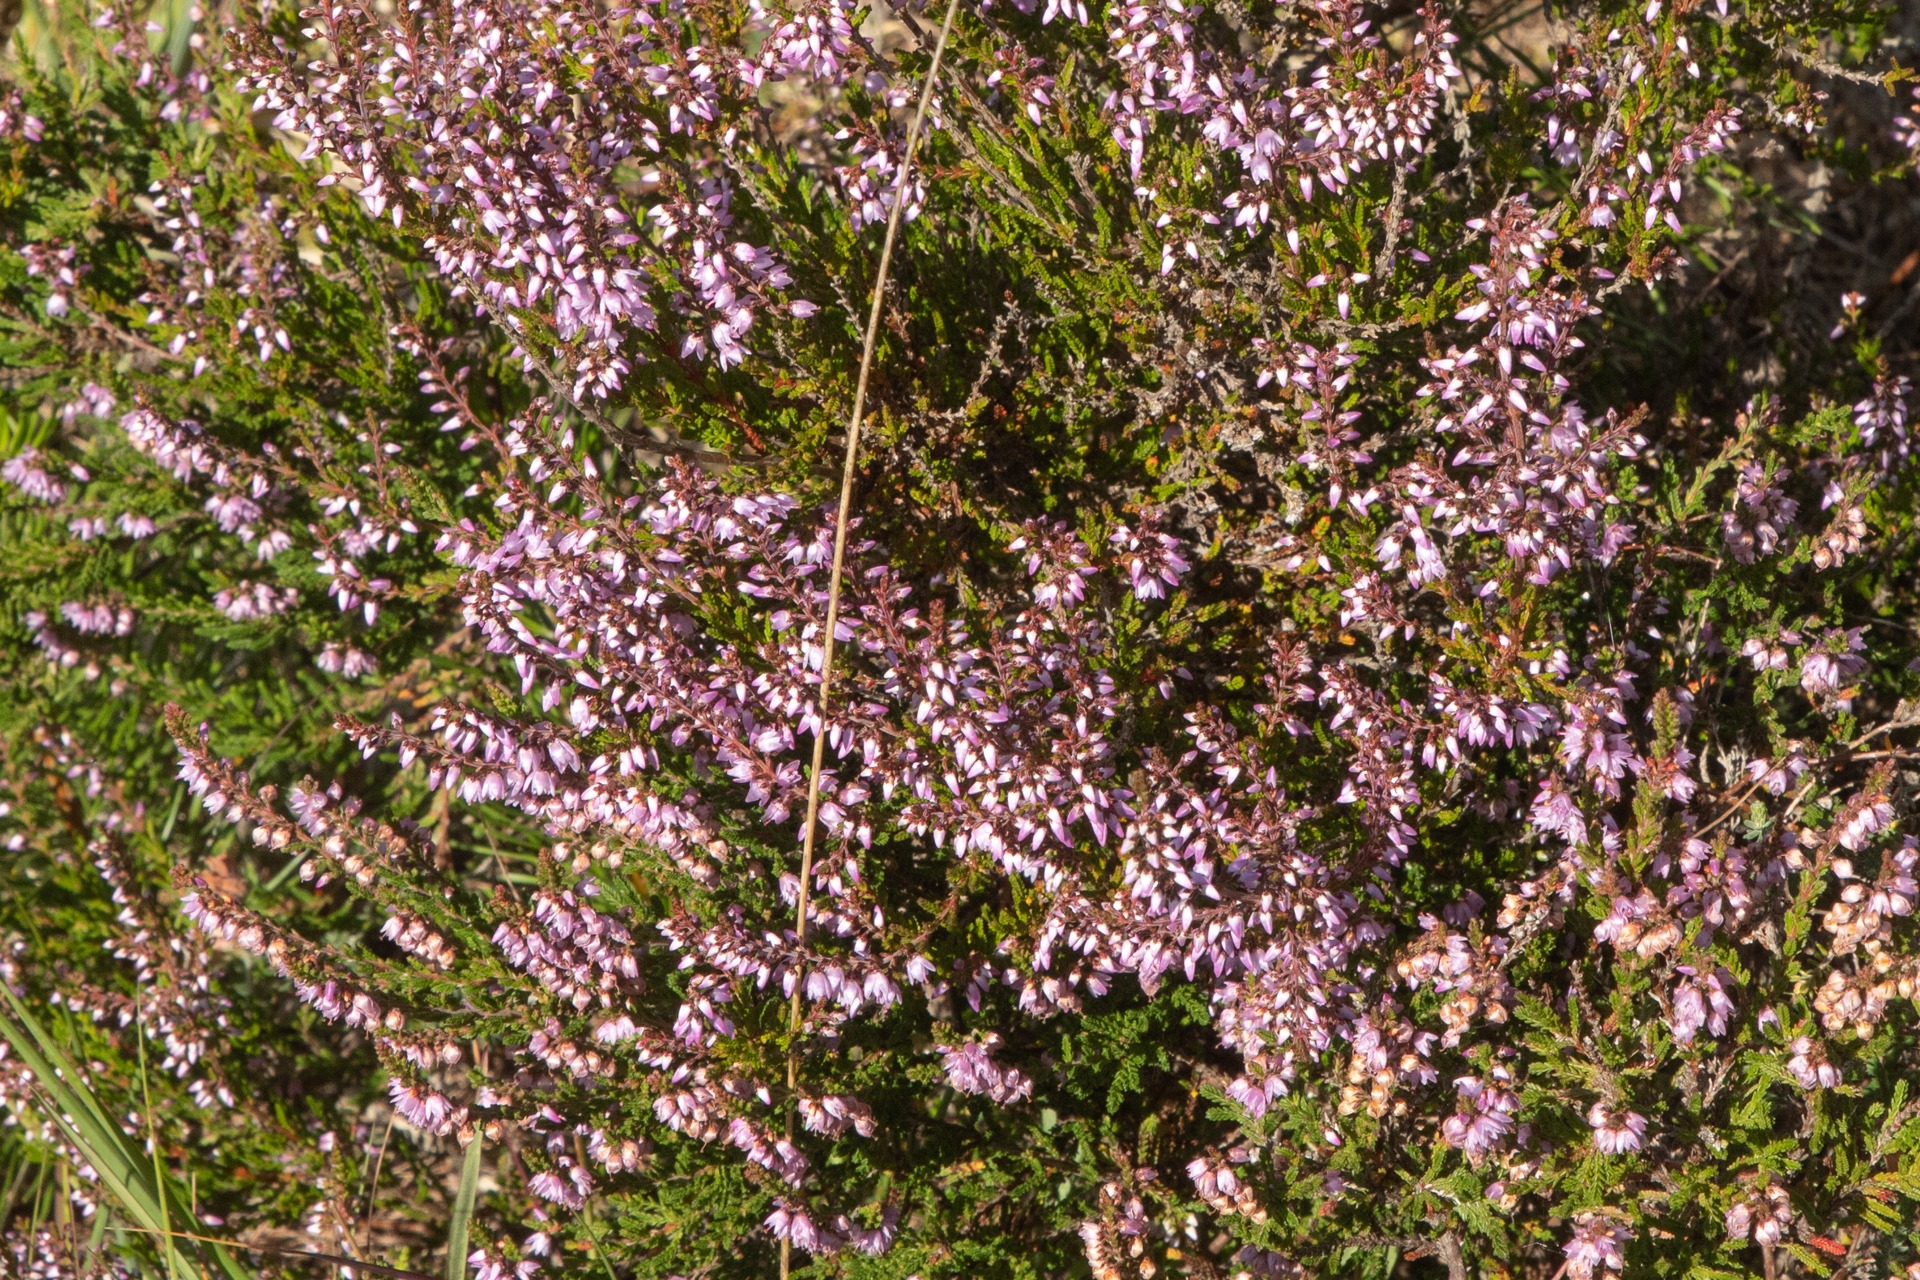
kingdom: Plantae
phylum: Tracheophyta
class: Magnoliopsida
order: Ericales
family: Ericaceae
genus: Calluna
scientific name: Calluna vulgaris
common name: Hedelyng
